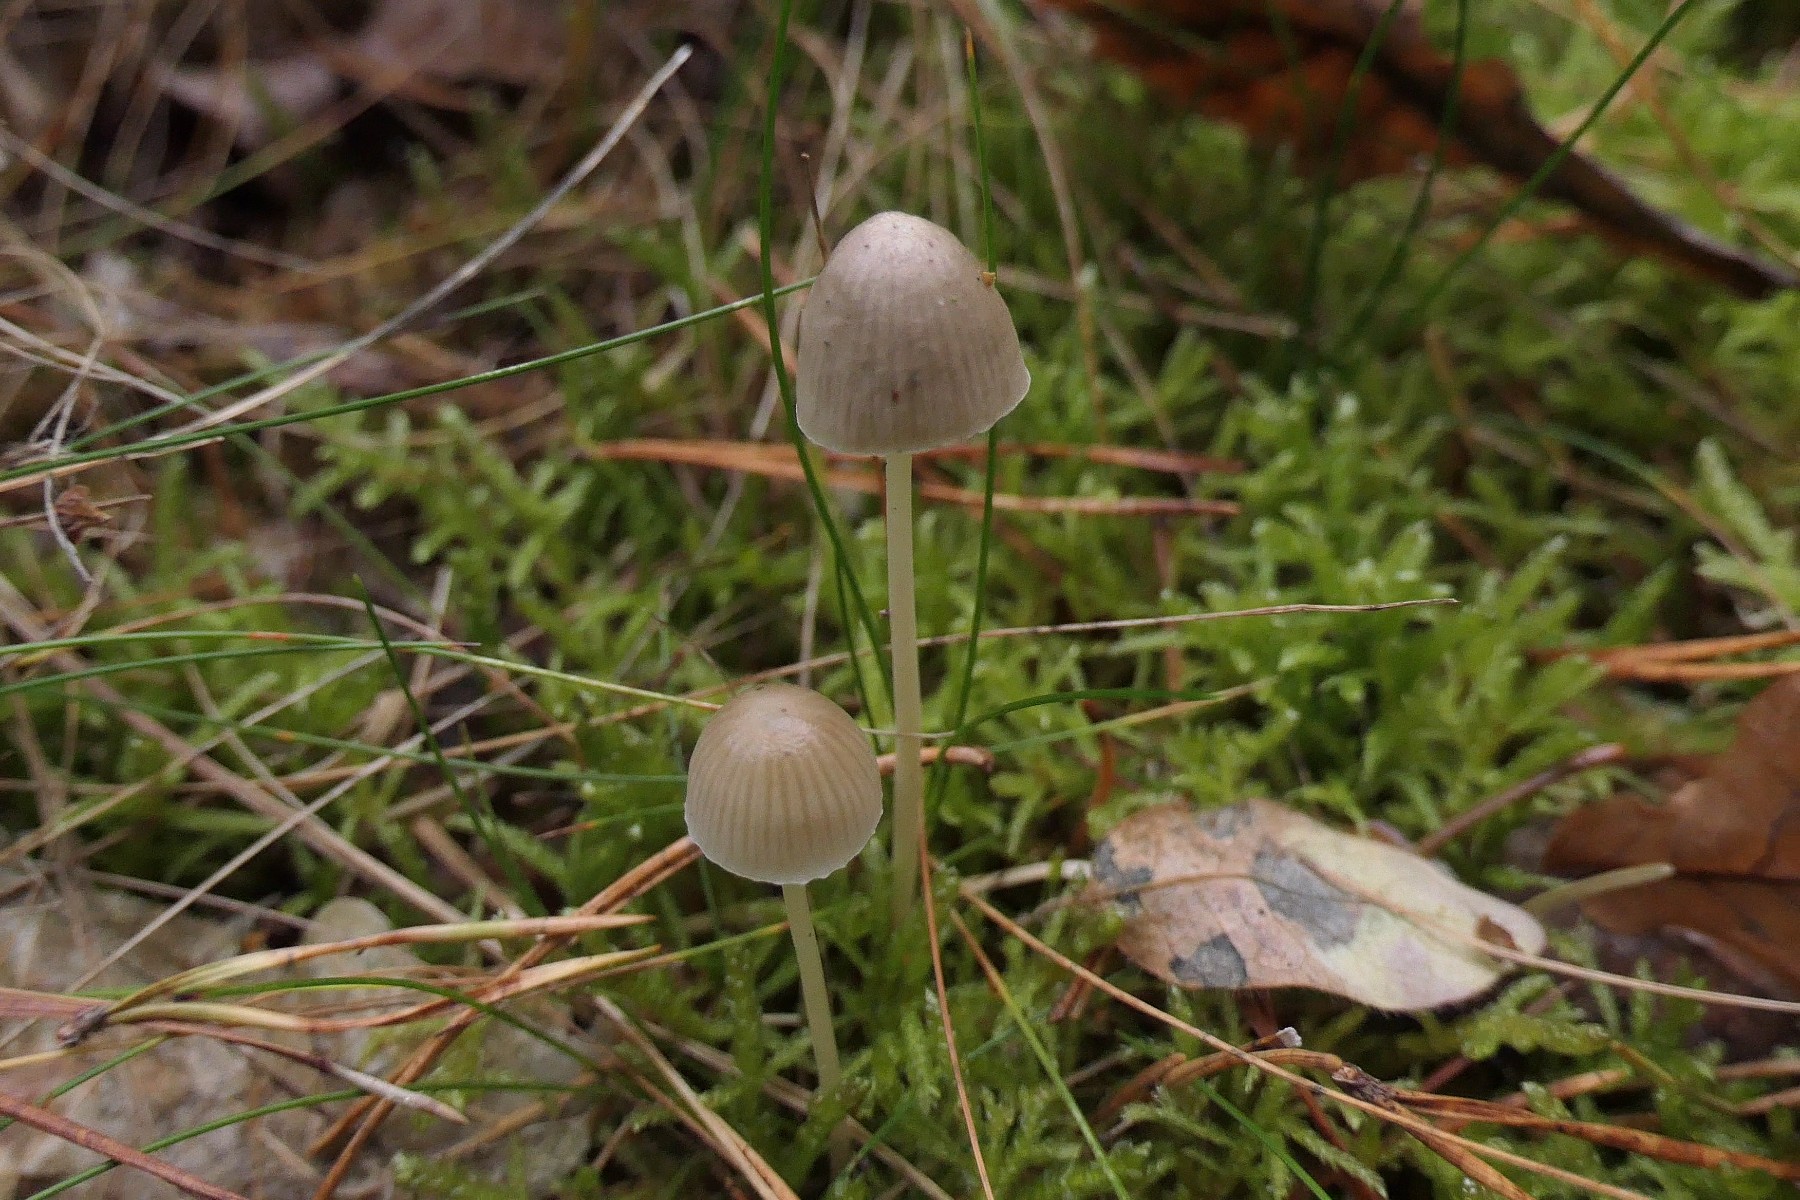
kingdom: Fungi
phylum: Basidiomycota
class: Agaricomycetes
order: Agaricales
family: Mycenaceae
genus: Mycena
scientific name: Mycena epipterygia
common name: gulstokket huesvamp
